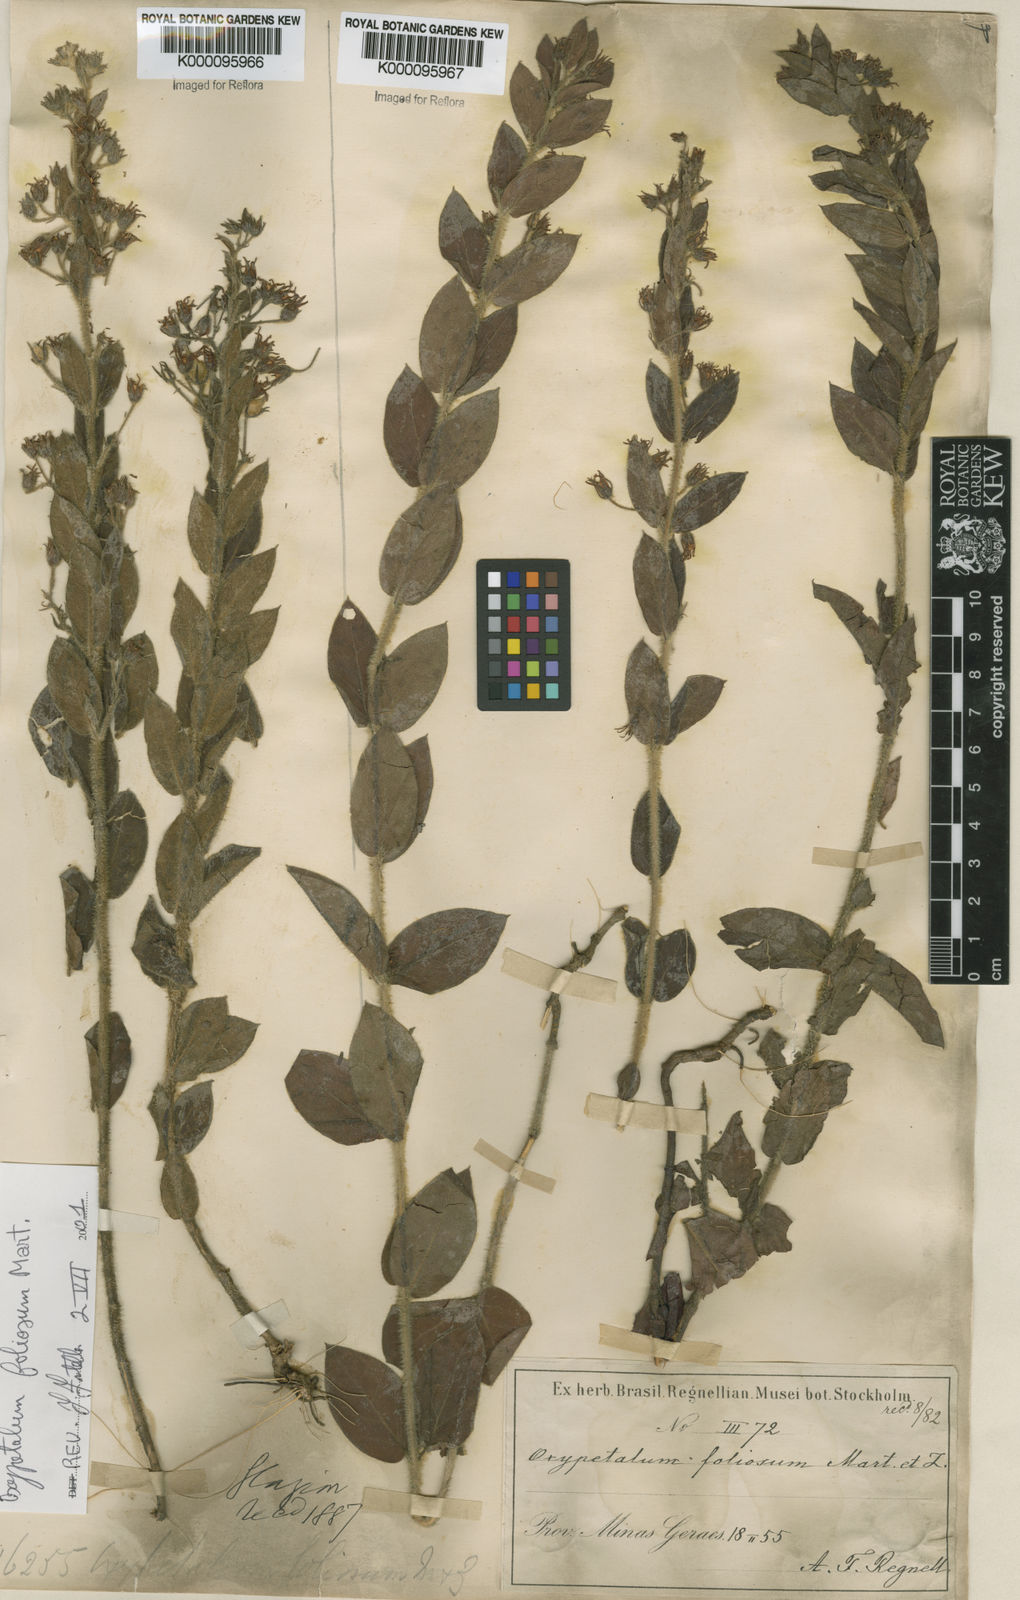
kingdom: Plantae
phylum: Tracheophyta
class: Magnoliopsida
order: Gentianales
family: Apocynaceae
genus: Oxypetalum
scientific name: Oxypetalum foliosum
